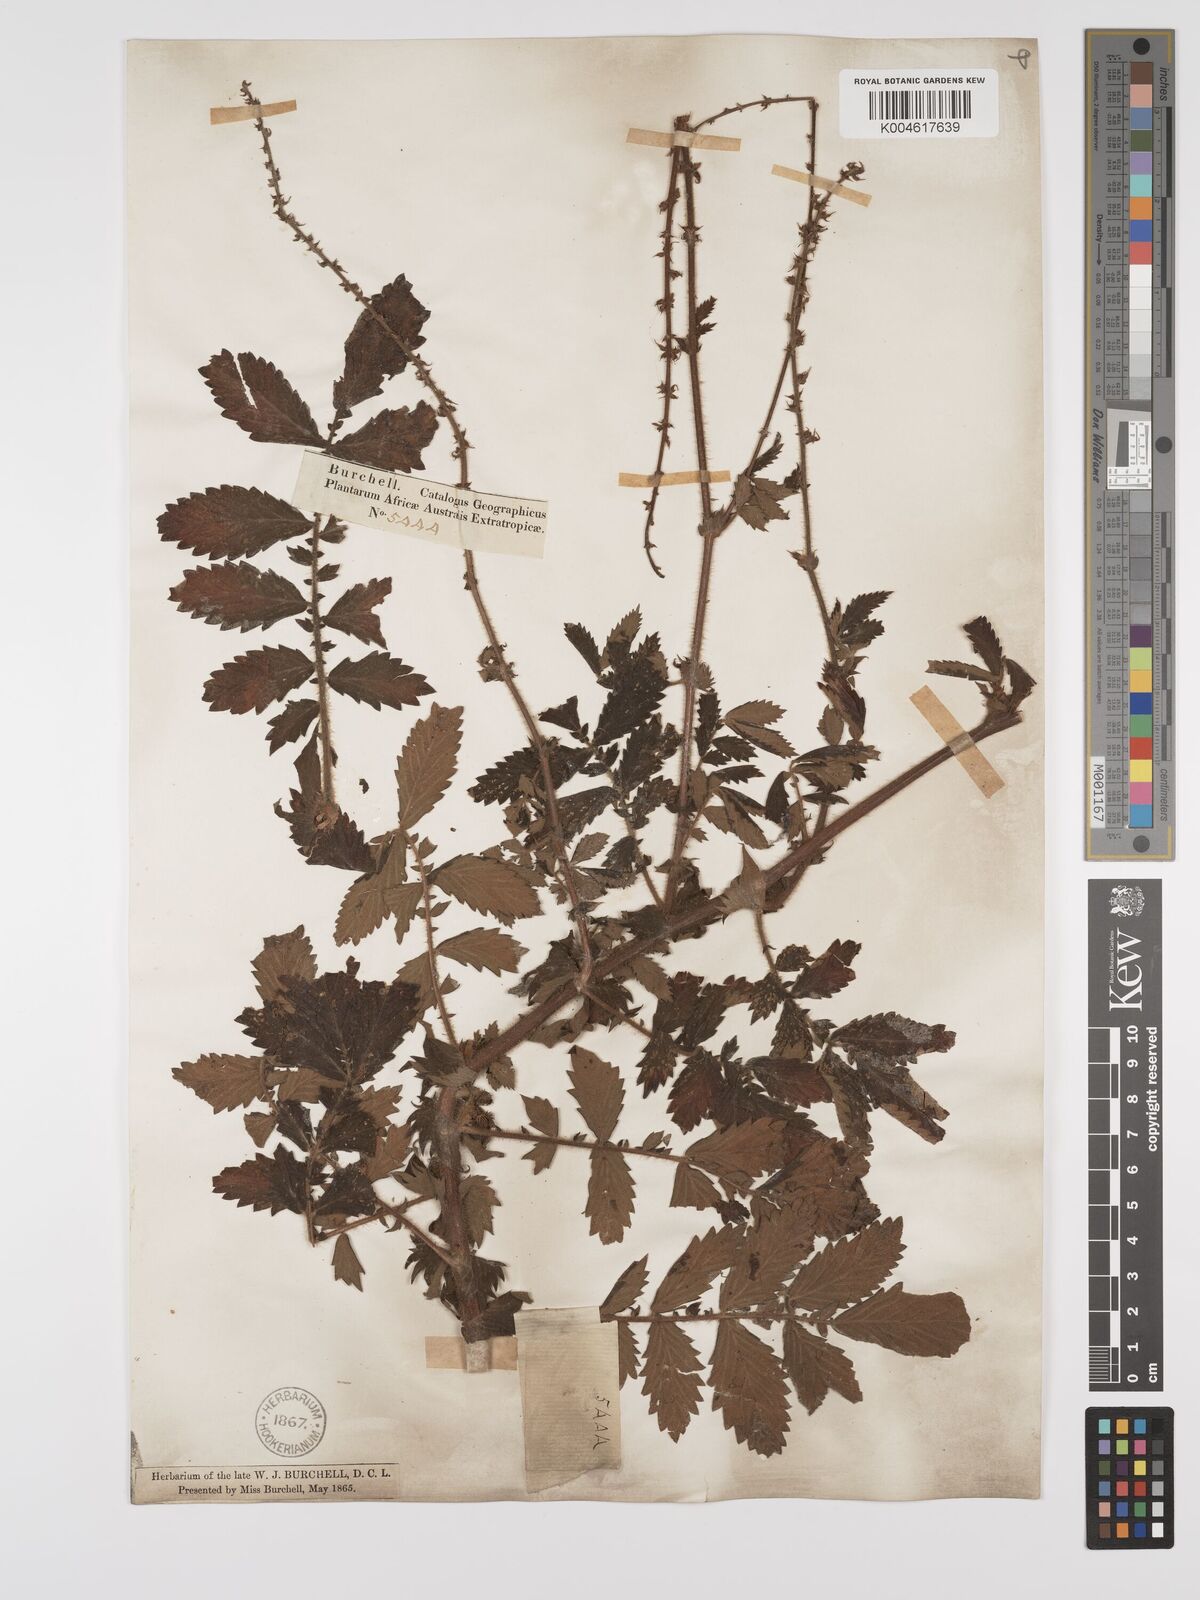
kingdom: Plantae
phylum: Tracheophyta
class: Magnoliopsida
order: Rosales
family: Rosaceae
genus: Agrimonia
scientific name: Agrimonia eupatoria
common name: Agrimony
